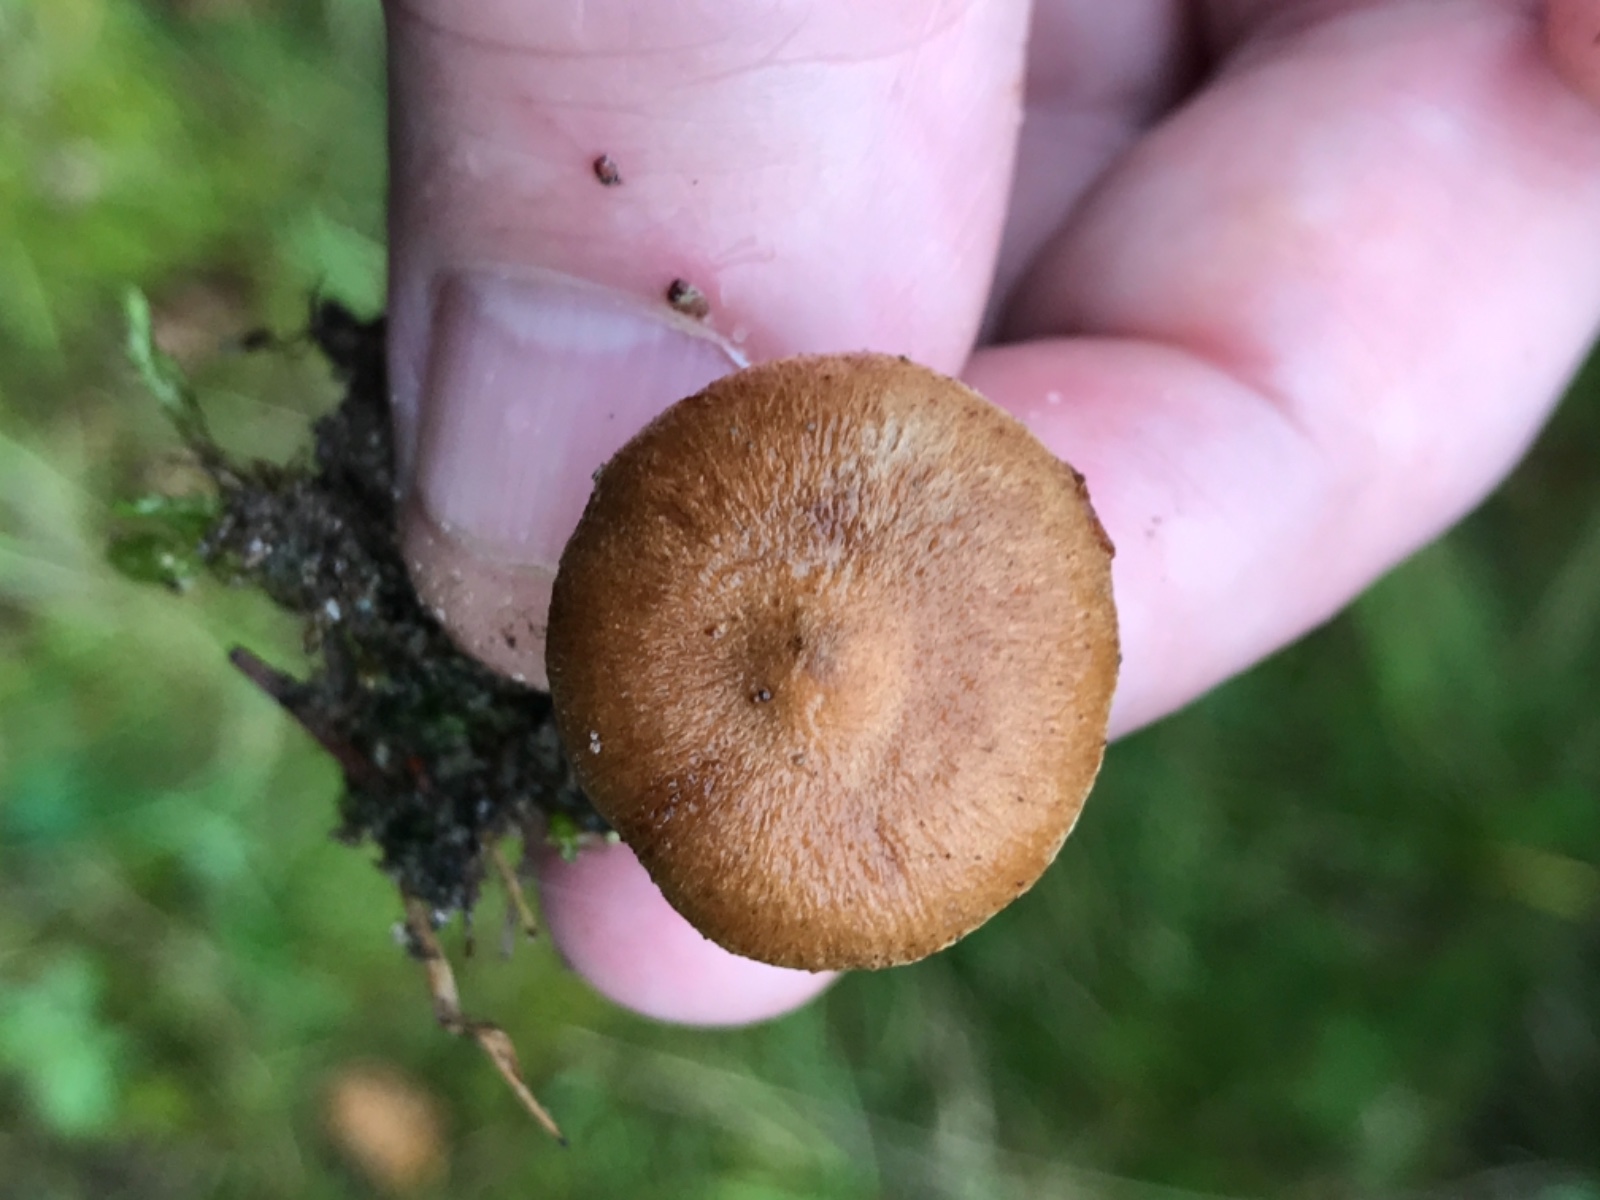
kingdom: Fungi
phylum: Basidiomycota
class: Agaricomycetes
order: Agaricales
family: Inocybaceae
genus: Inocybe
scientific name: Inocybe
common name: trævlhat
